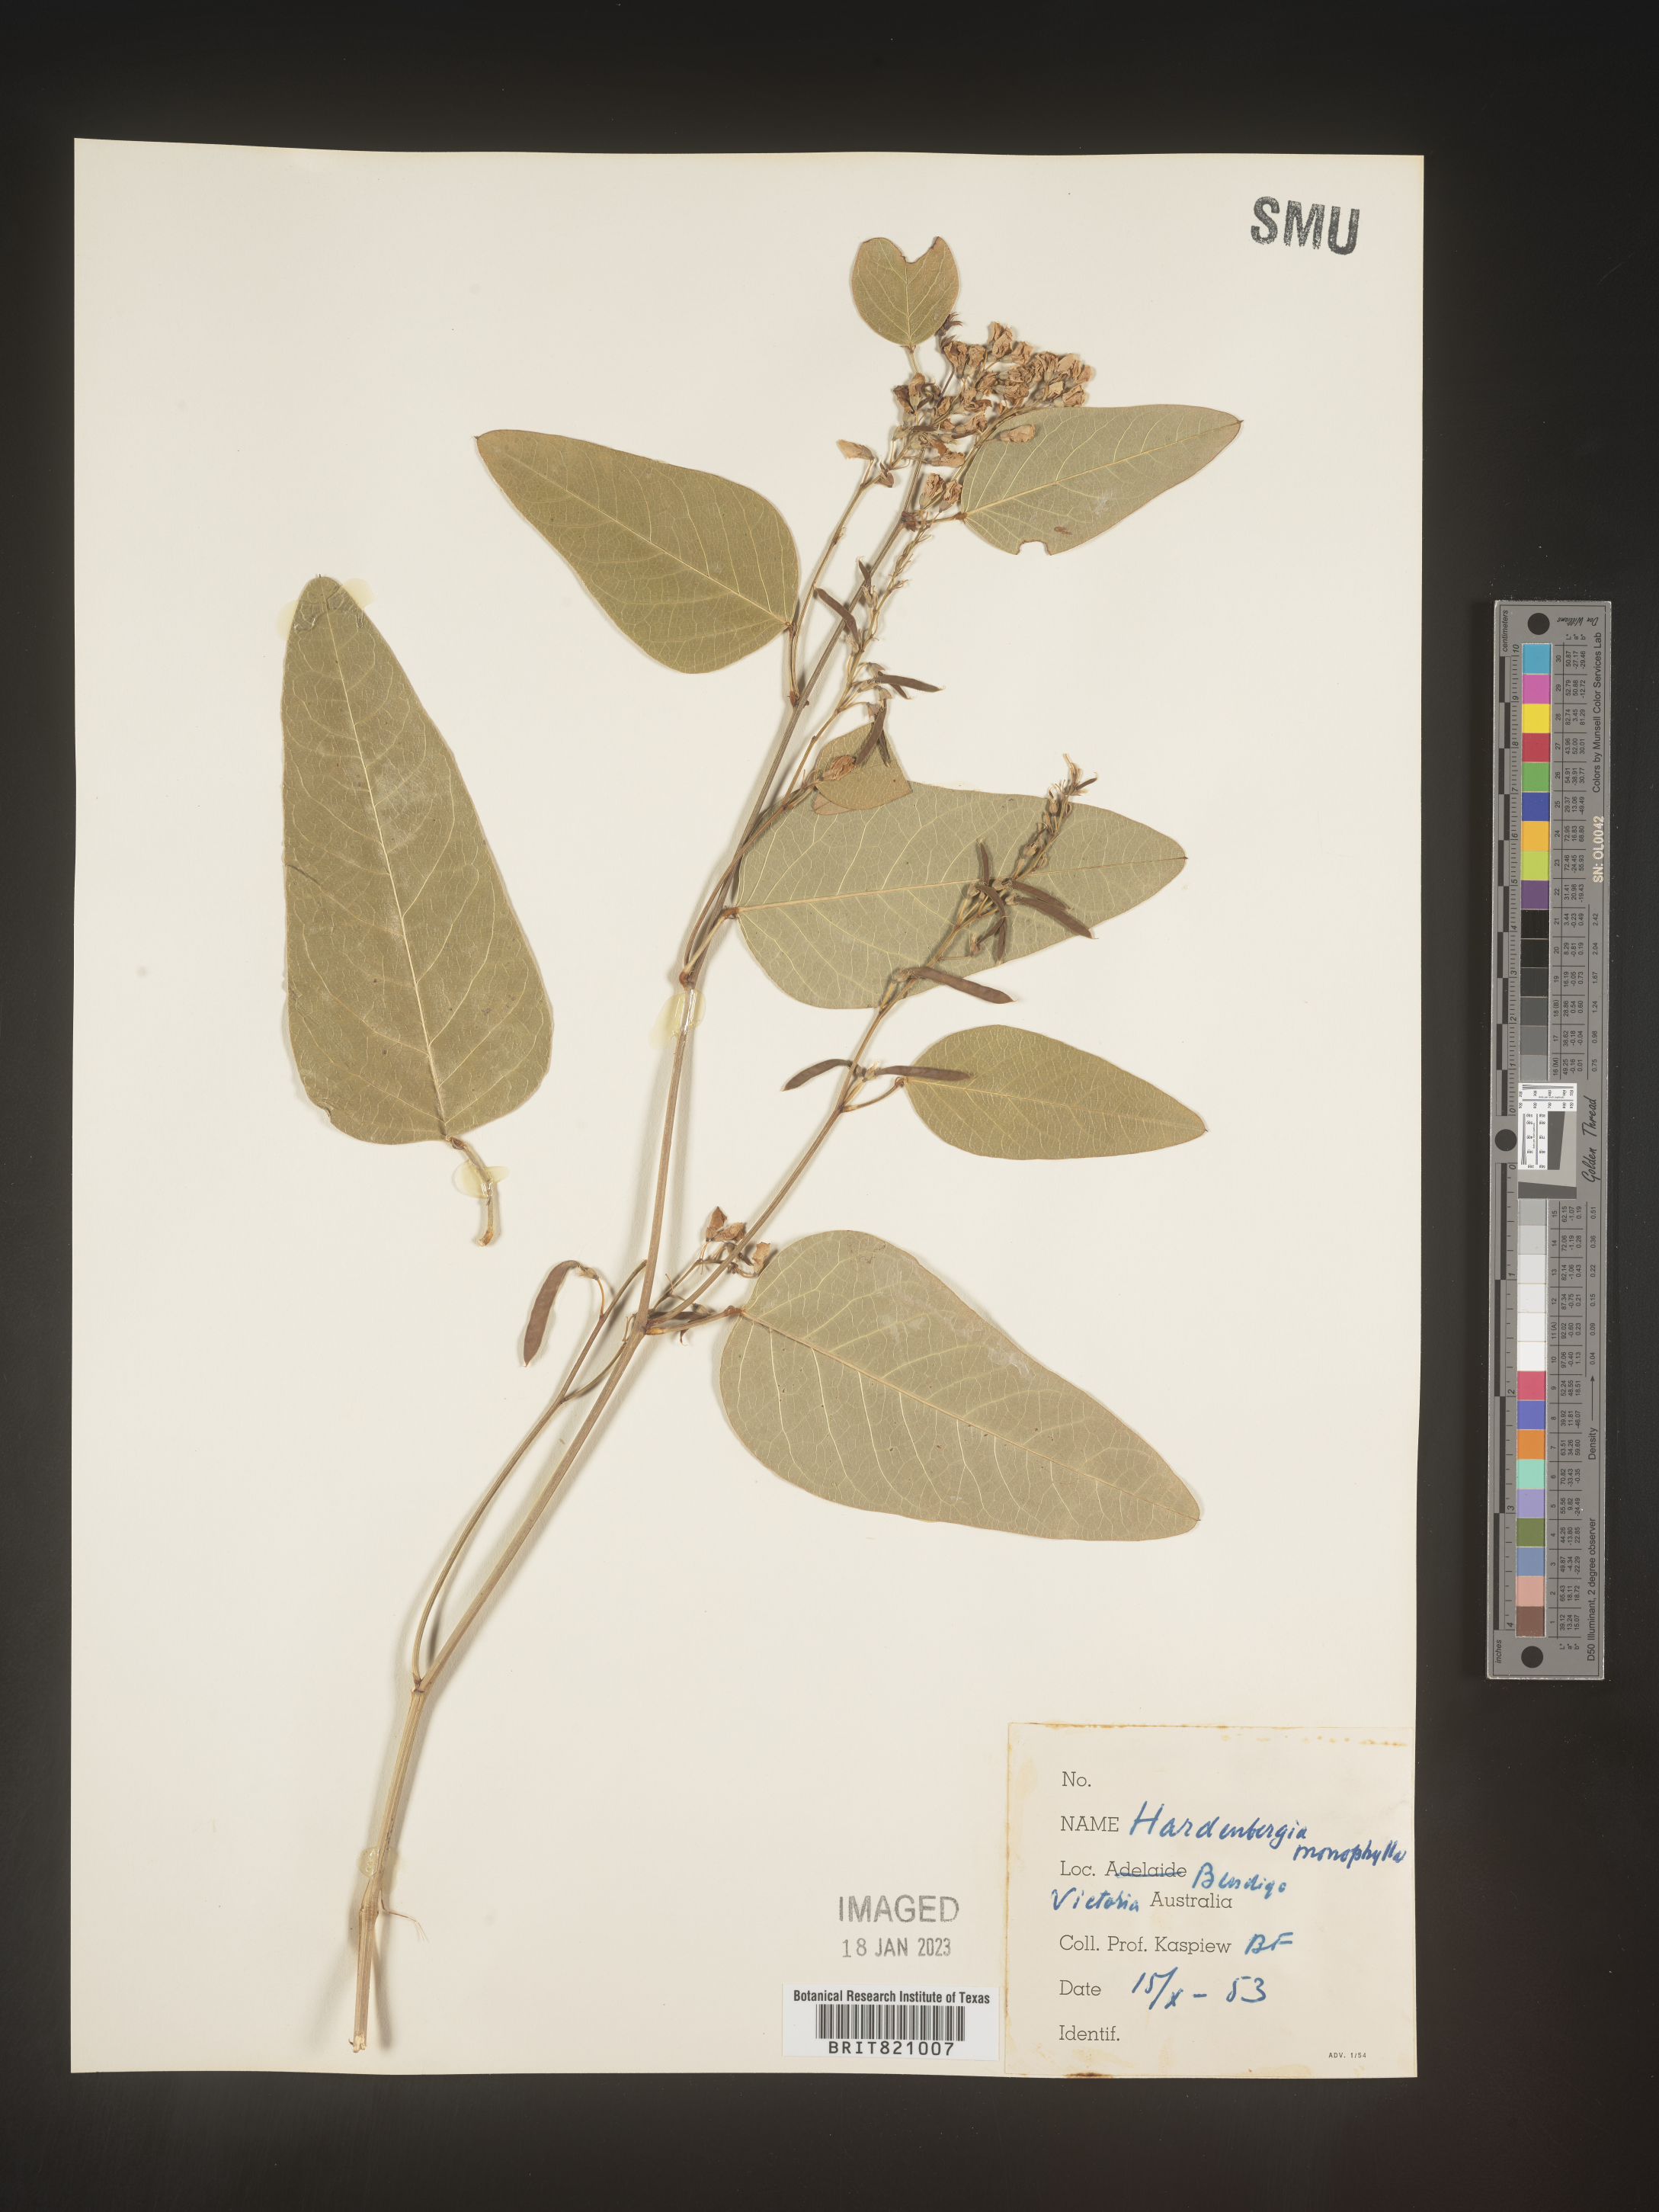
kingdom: Plantae
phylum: Tracheophyta
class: Magnoliopsida
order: Fabales
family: Fabaceae
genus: Hardenbergia
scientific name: Hardenbergia
